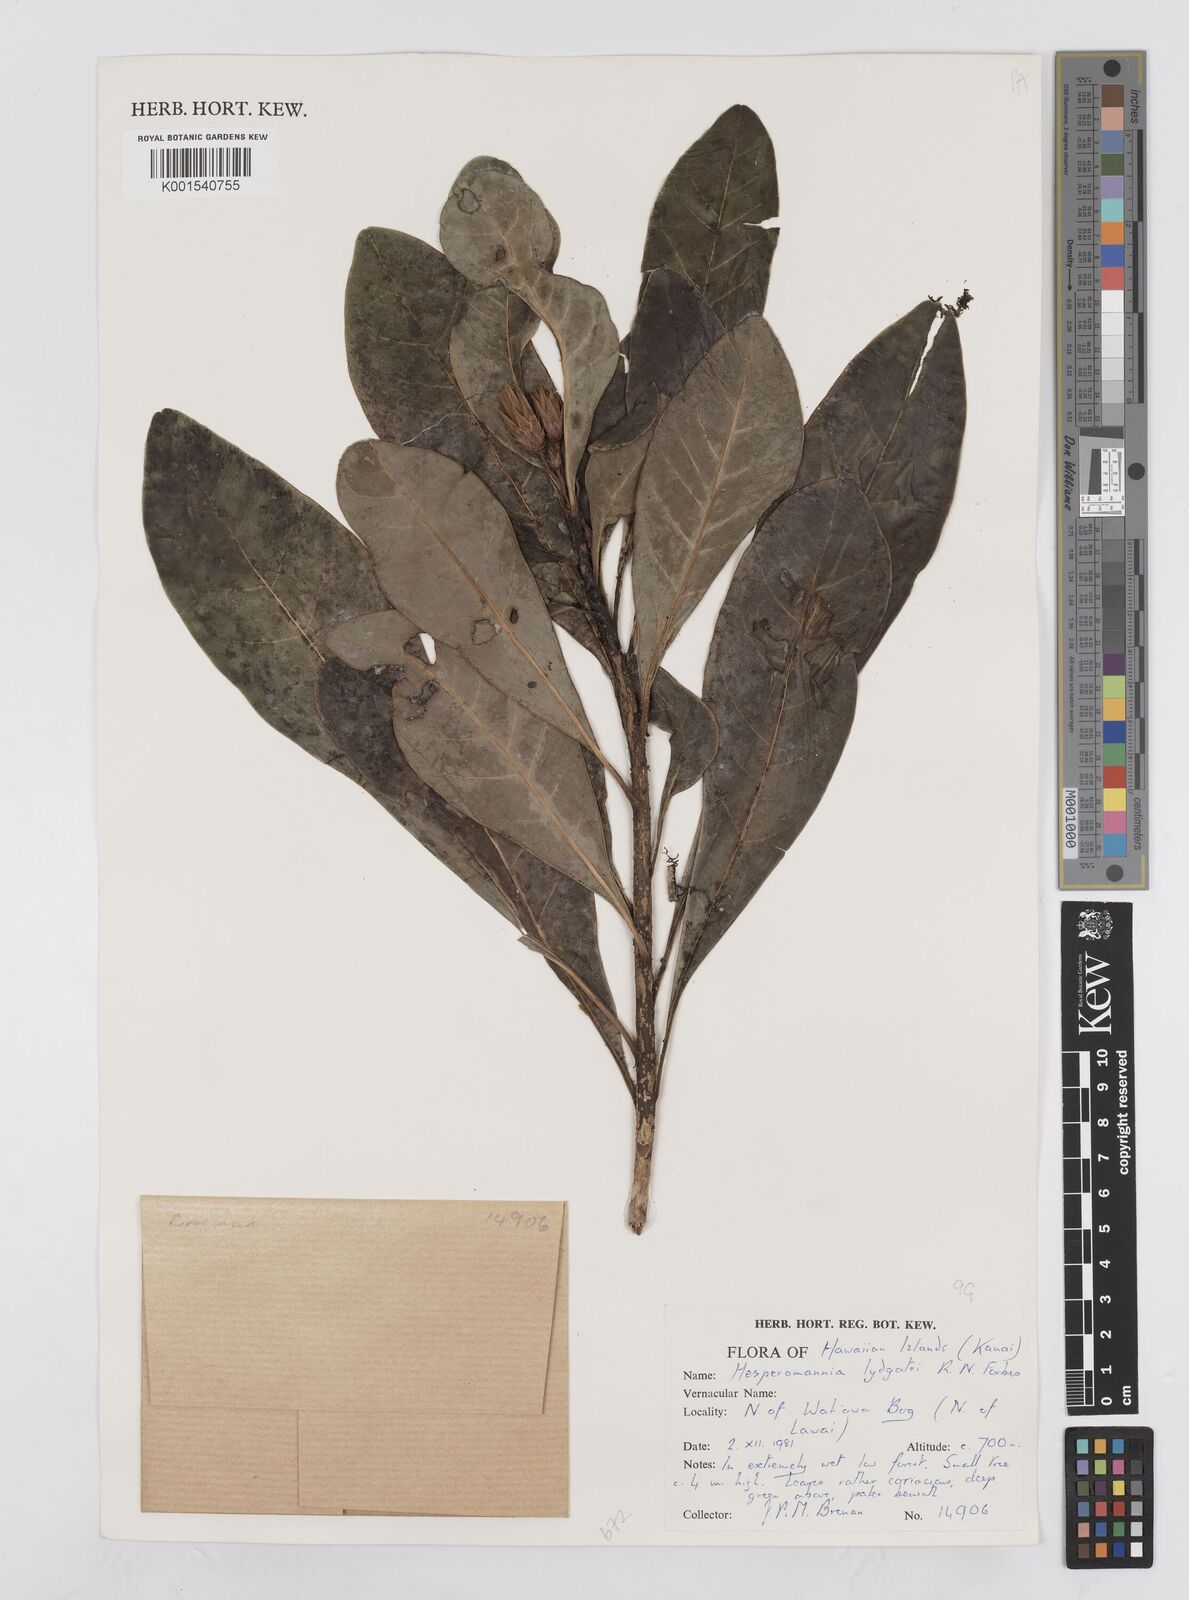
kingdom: Plantae
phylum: Tracheophyta
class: Magnoliopsida
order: Asterales
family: Asteraceae
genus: Hesperomannia
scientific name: Hesperomannia lydgatei
